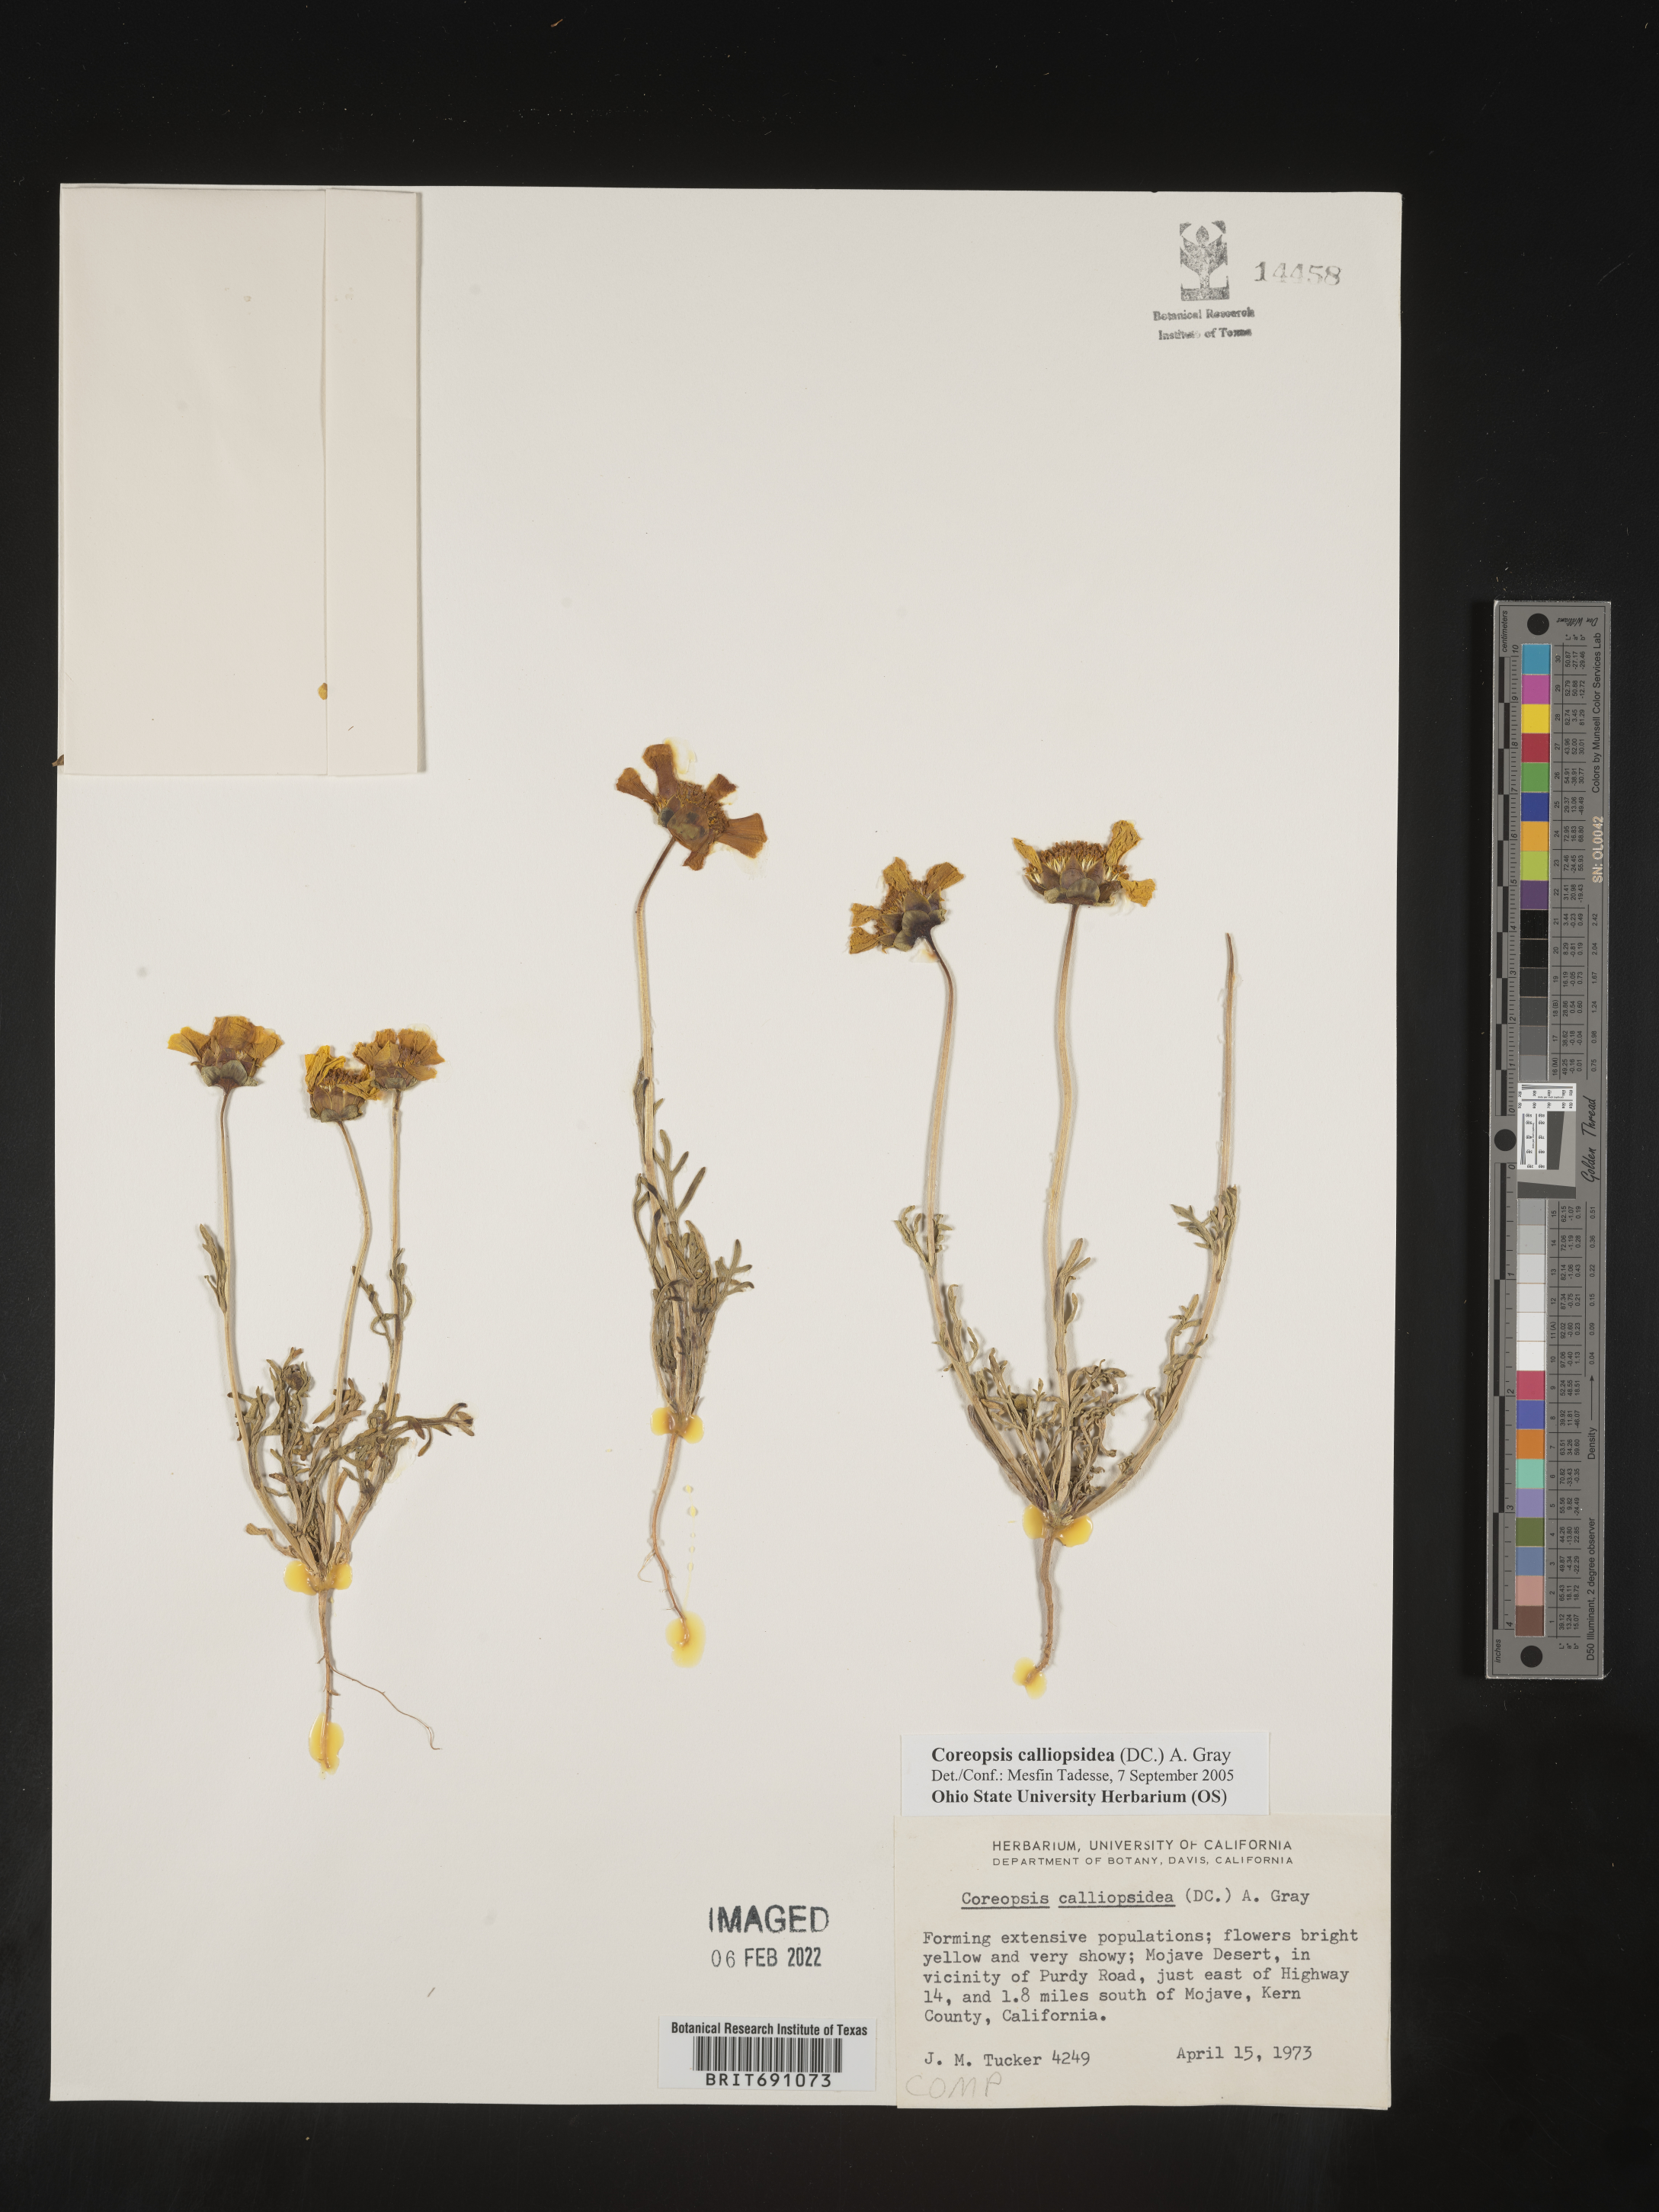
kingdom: Plantae
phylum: Tracheophyta
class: Magnoliopsida
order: Asterales
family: Asteraceae
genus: Coreopsis
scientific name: Coreopsis calliopsidea
